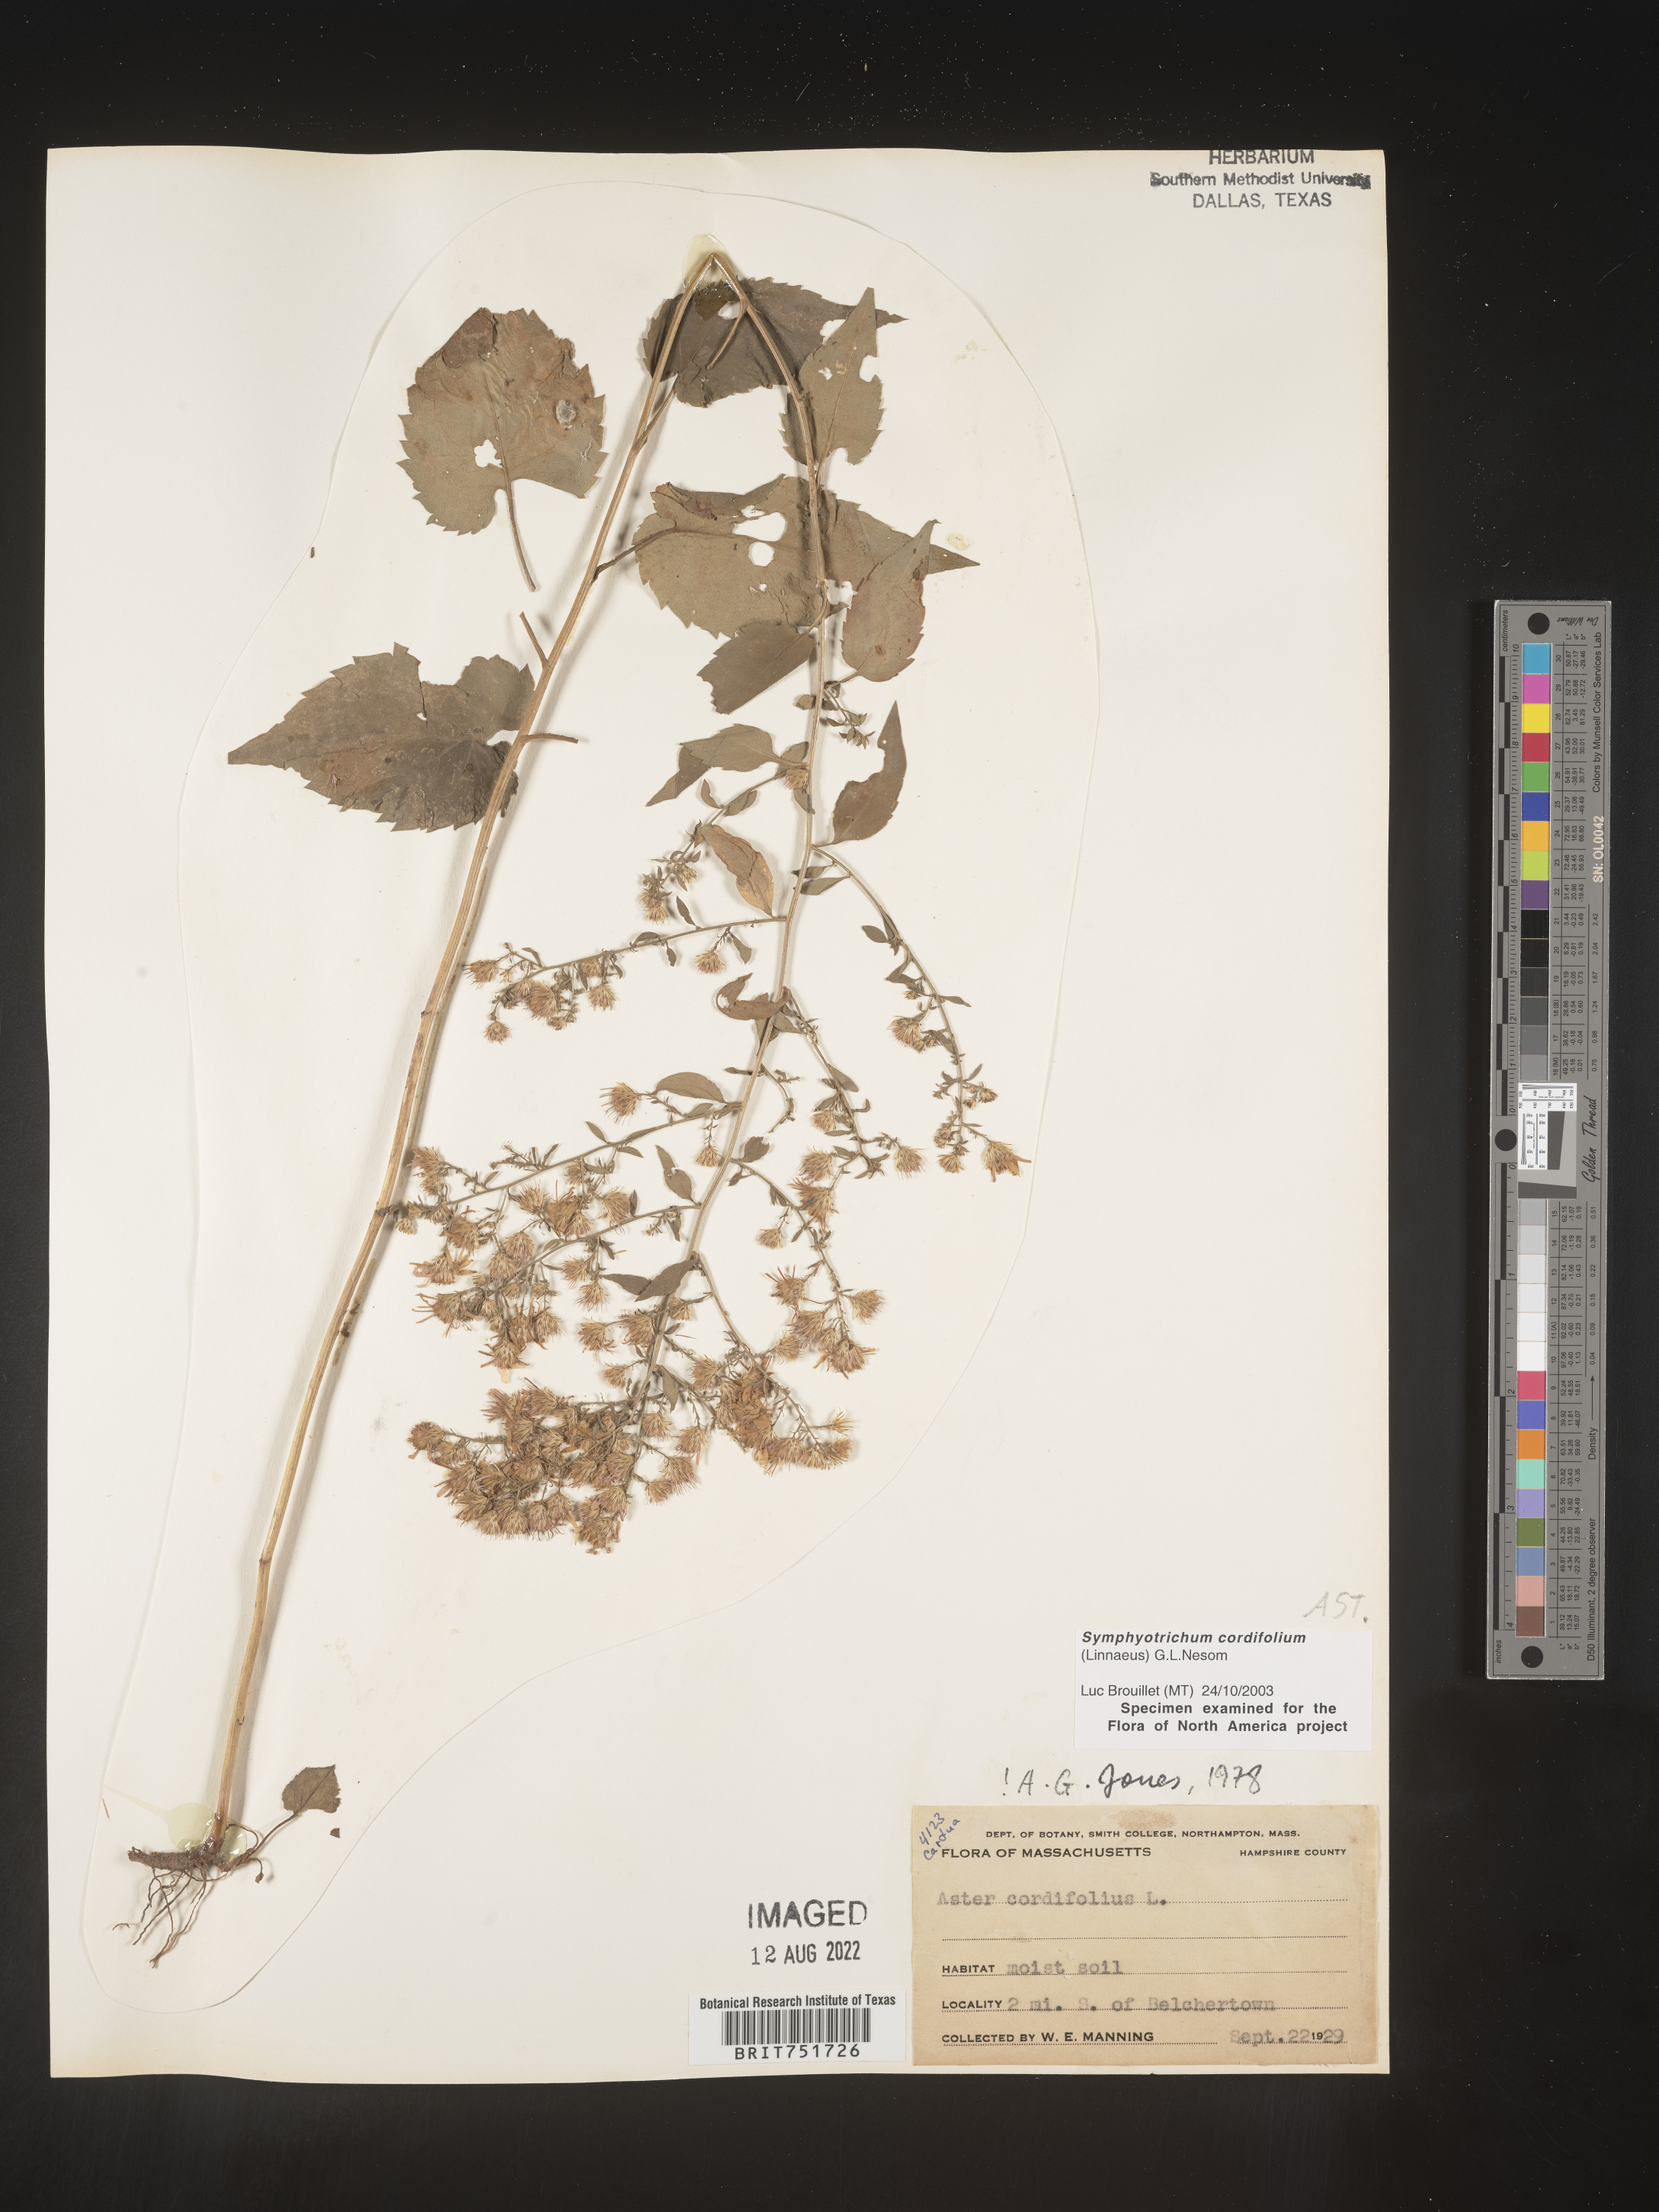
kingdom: Plantae
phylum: Tracheophyta
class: Magnoliopsida
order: Asterales
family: Asteraceae
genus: Symphyotrichum
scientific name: Symphyotrichum cordifolium
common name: Beeweed
